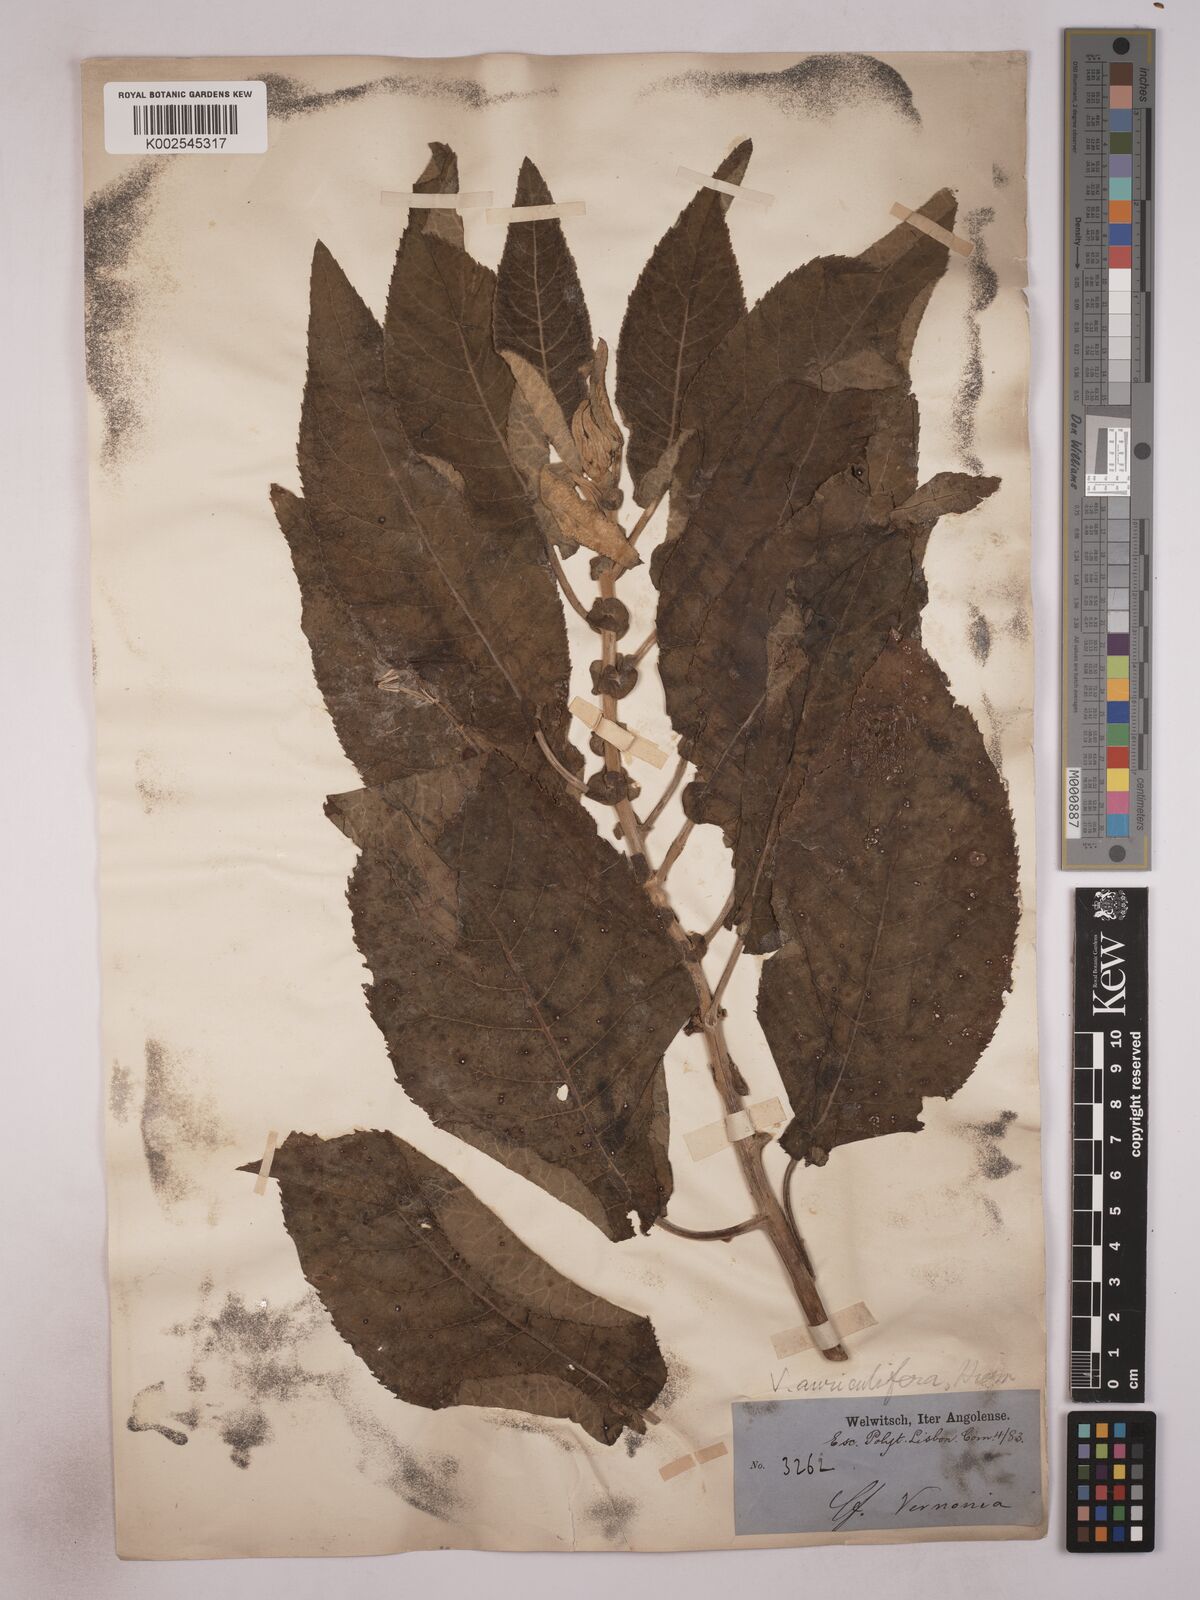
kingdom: Plantae
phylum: Tracheophyta
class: Magnoliopsida
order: Asterales
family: Asteraceae
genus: Gymnanthemum
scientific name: Gymnanthemum auriculiferum
